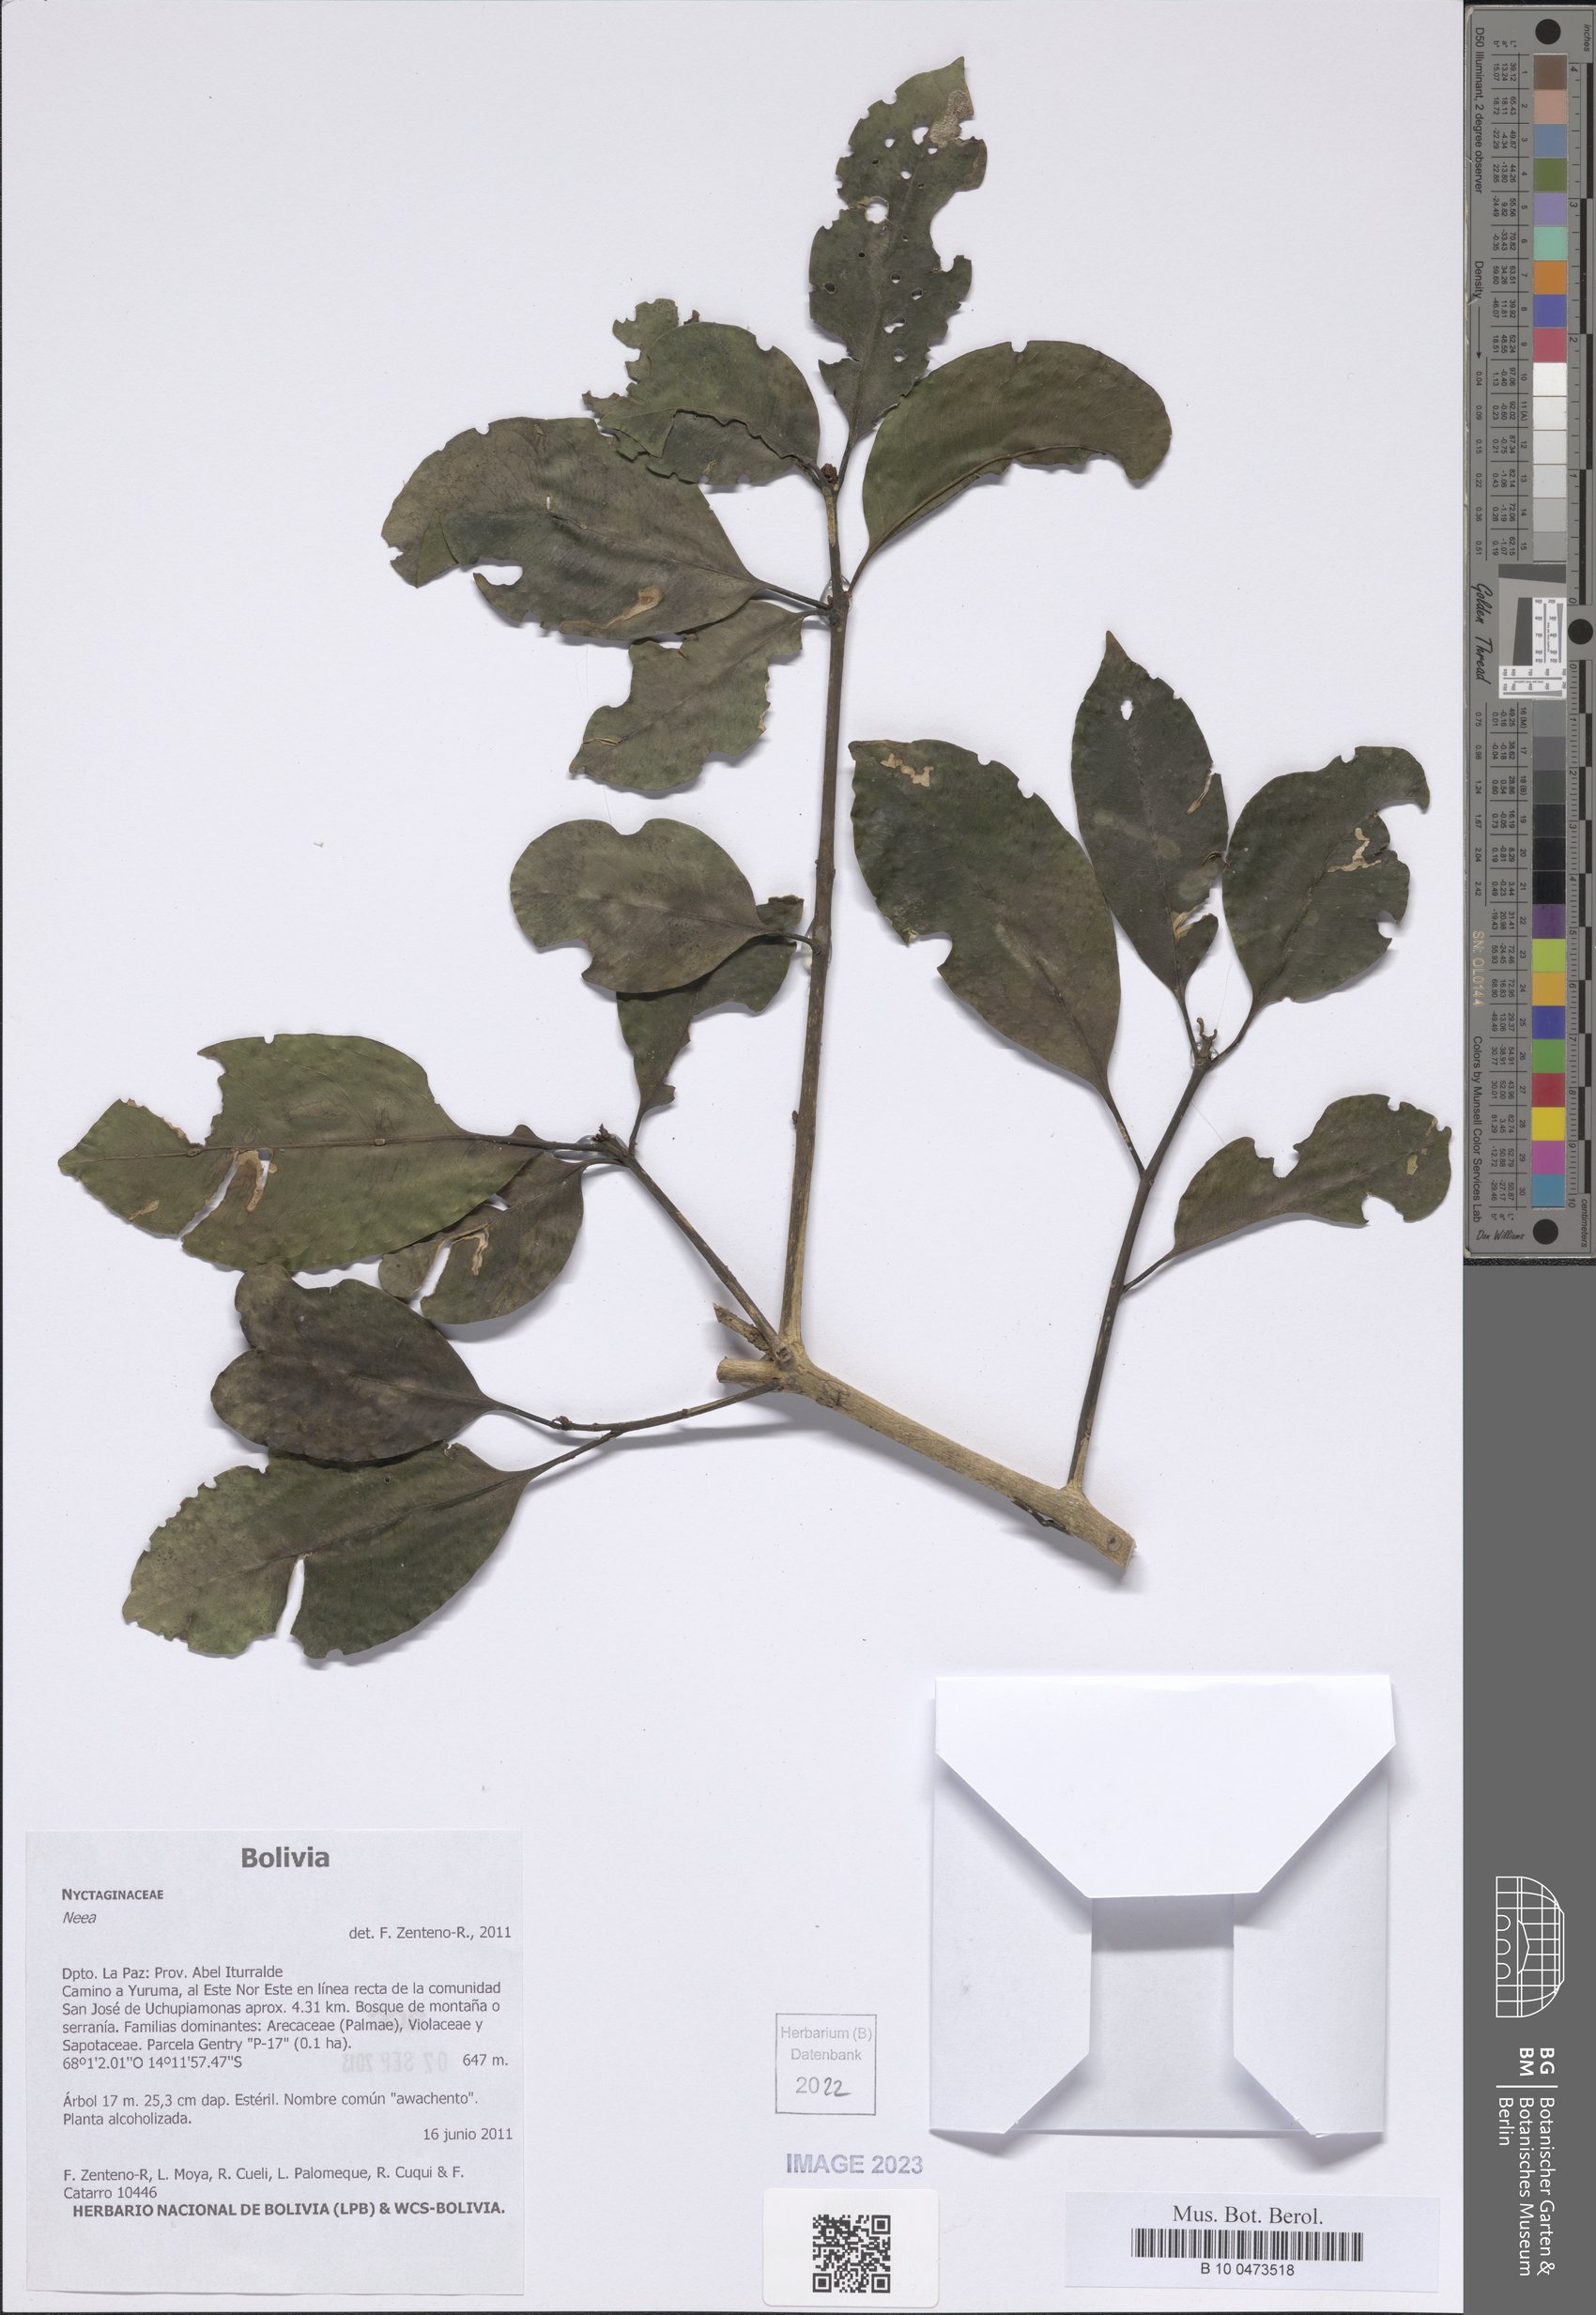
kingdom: Plantae
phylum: Tracheophyta
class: Magnoliopsida
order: Caryophyllales
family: Nyctaginaceae
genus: Neea
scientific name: Neea
